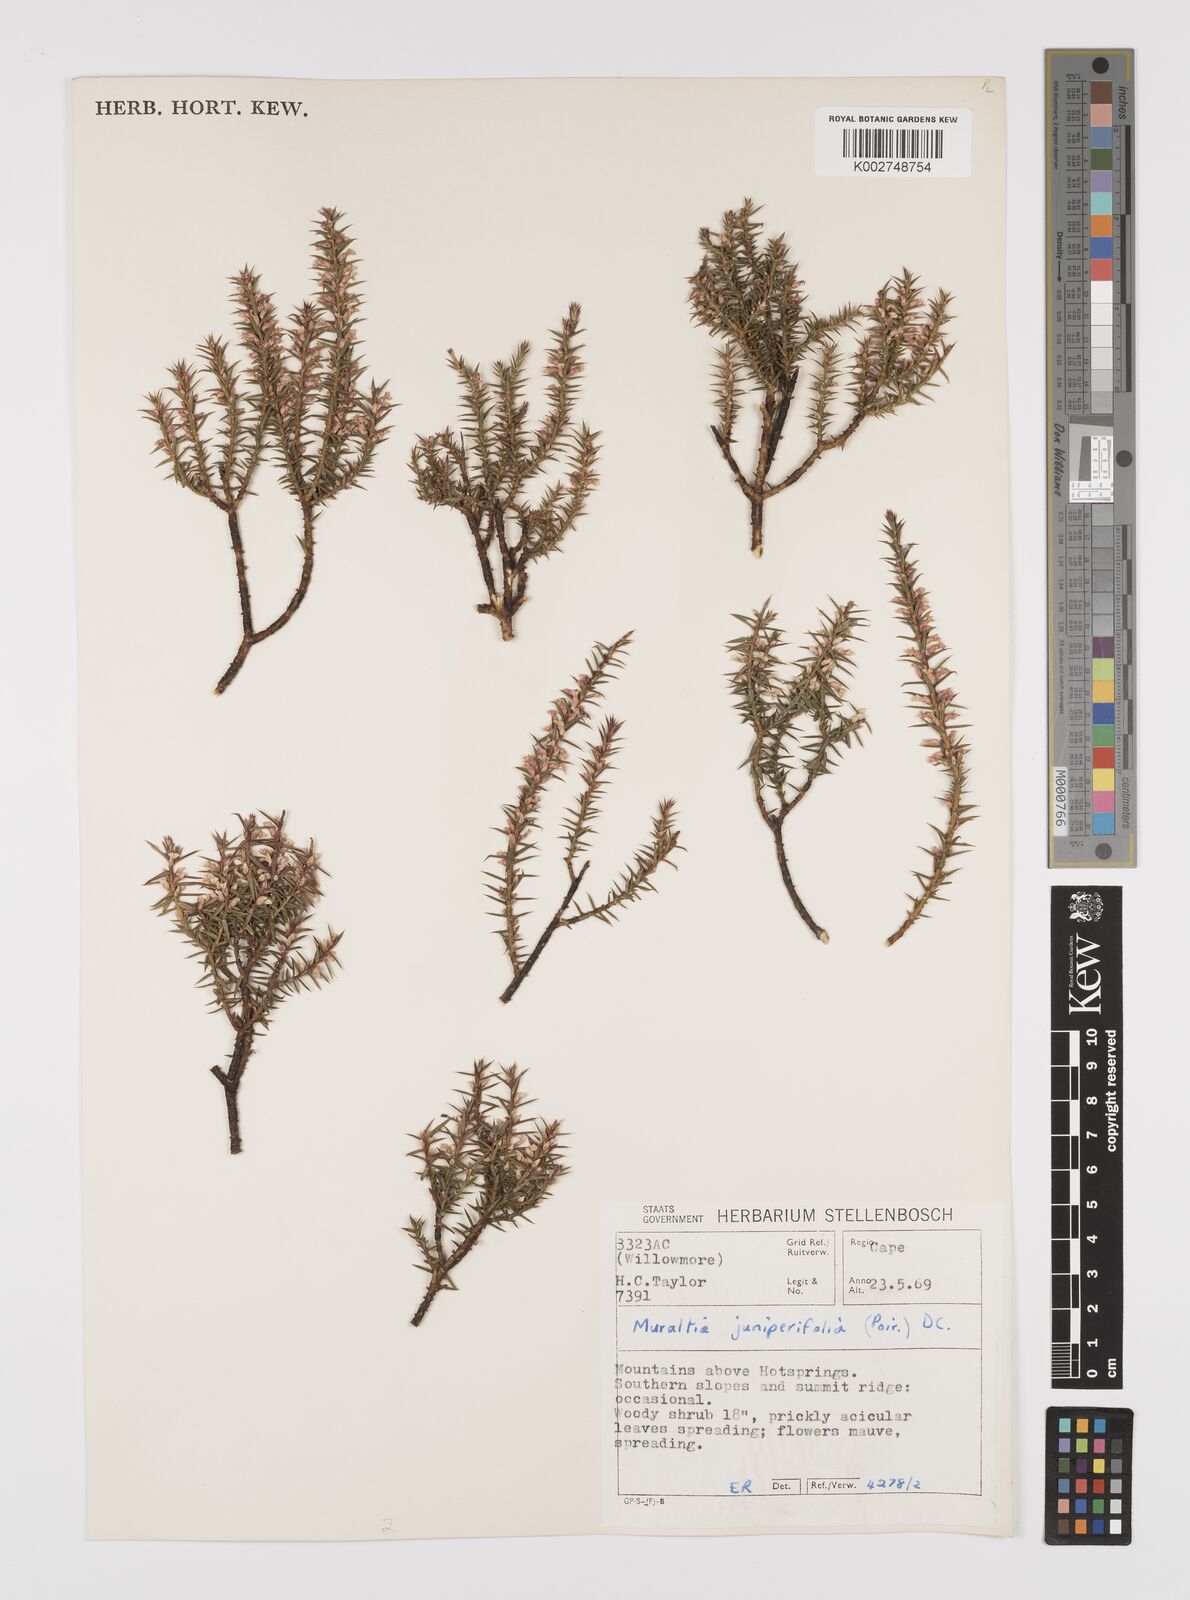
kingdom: Plantae
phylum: Tracheophyta
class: Magnoliopsida
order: Fabales
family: Polygalaceae
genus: Muraltia
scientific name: Muraltia juniperifolia
